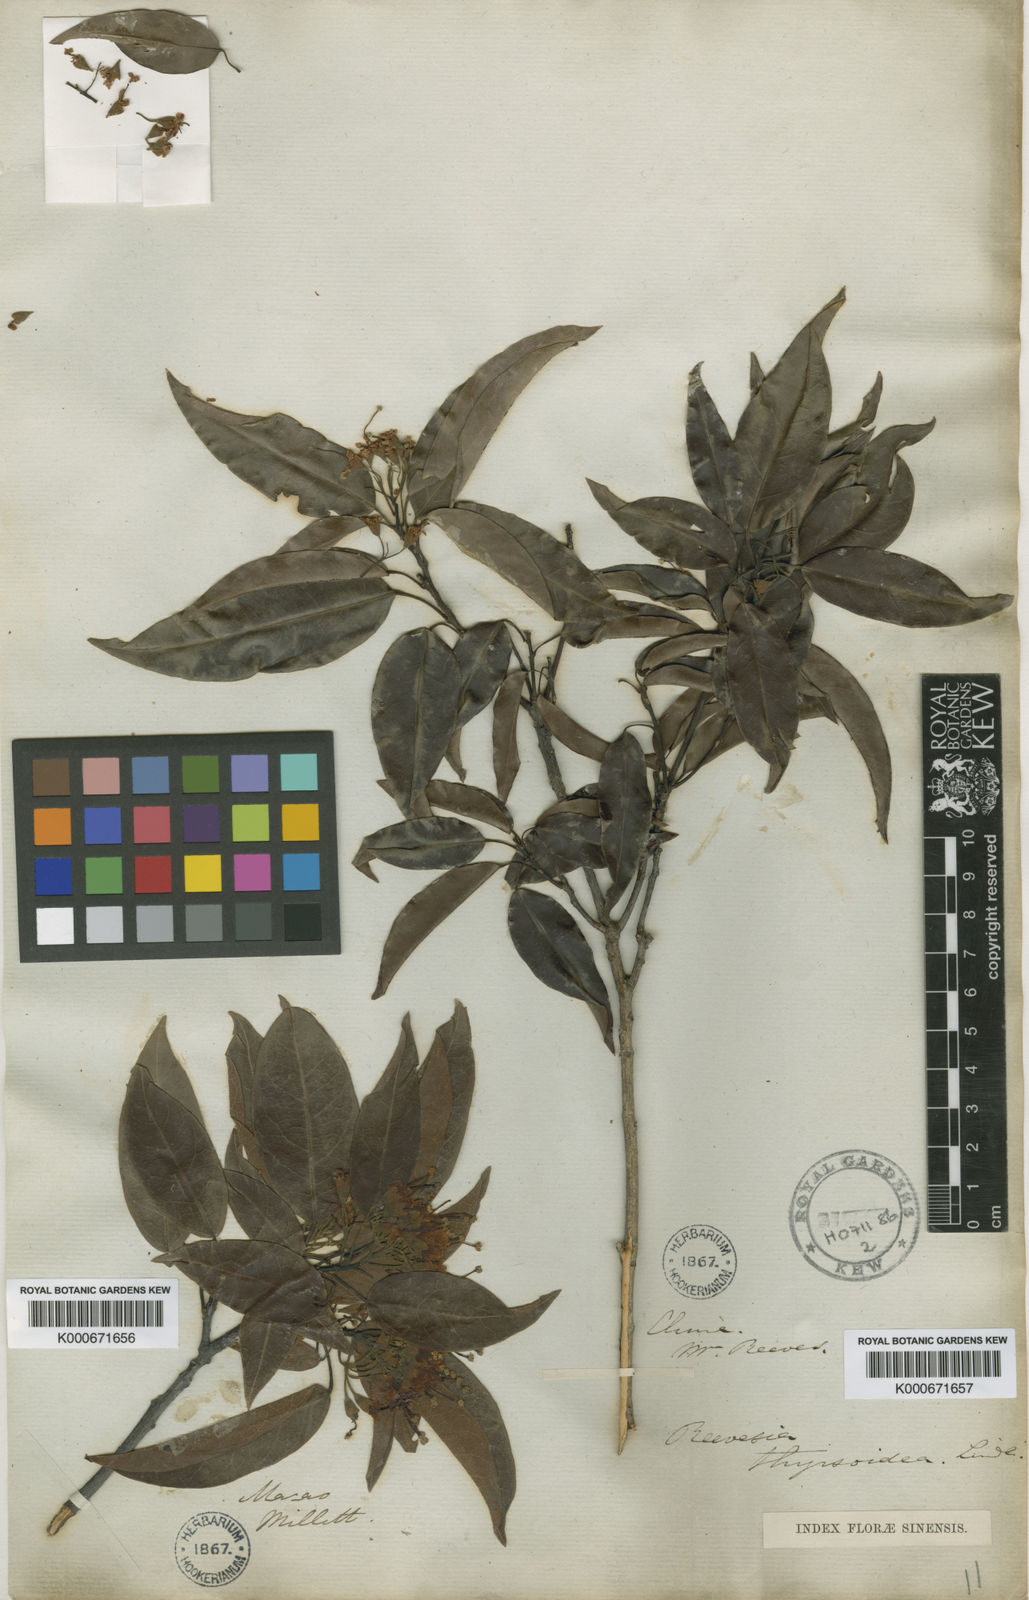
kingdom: Plantae
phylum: Tracheophyta
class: Magnoliopsida
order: Malvales
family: Malvaceae
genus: Reevesia
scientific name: Reevesia thyrsoidea
